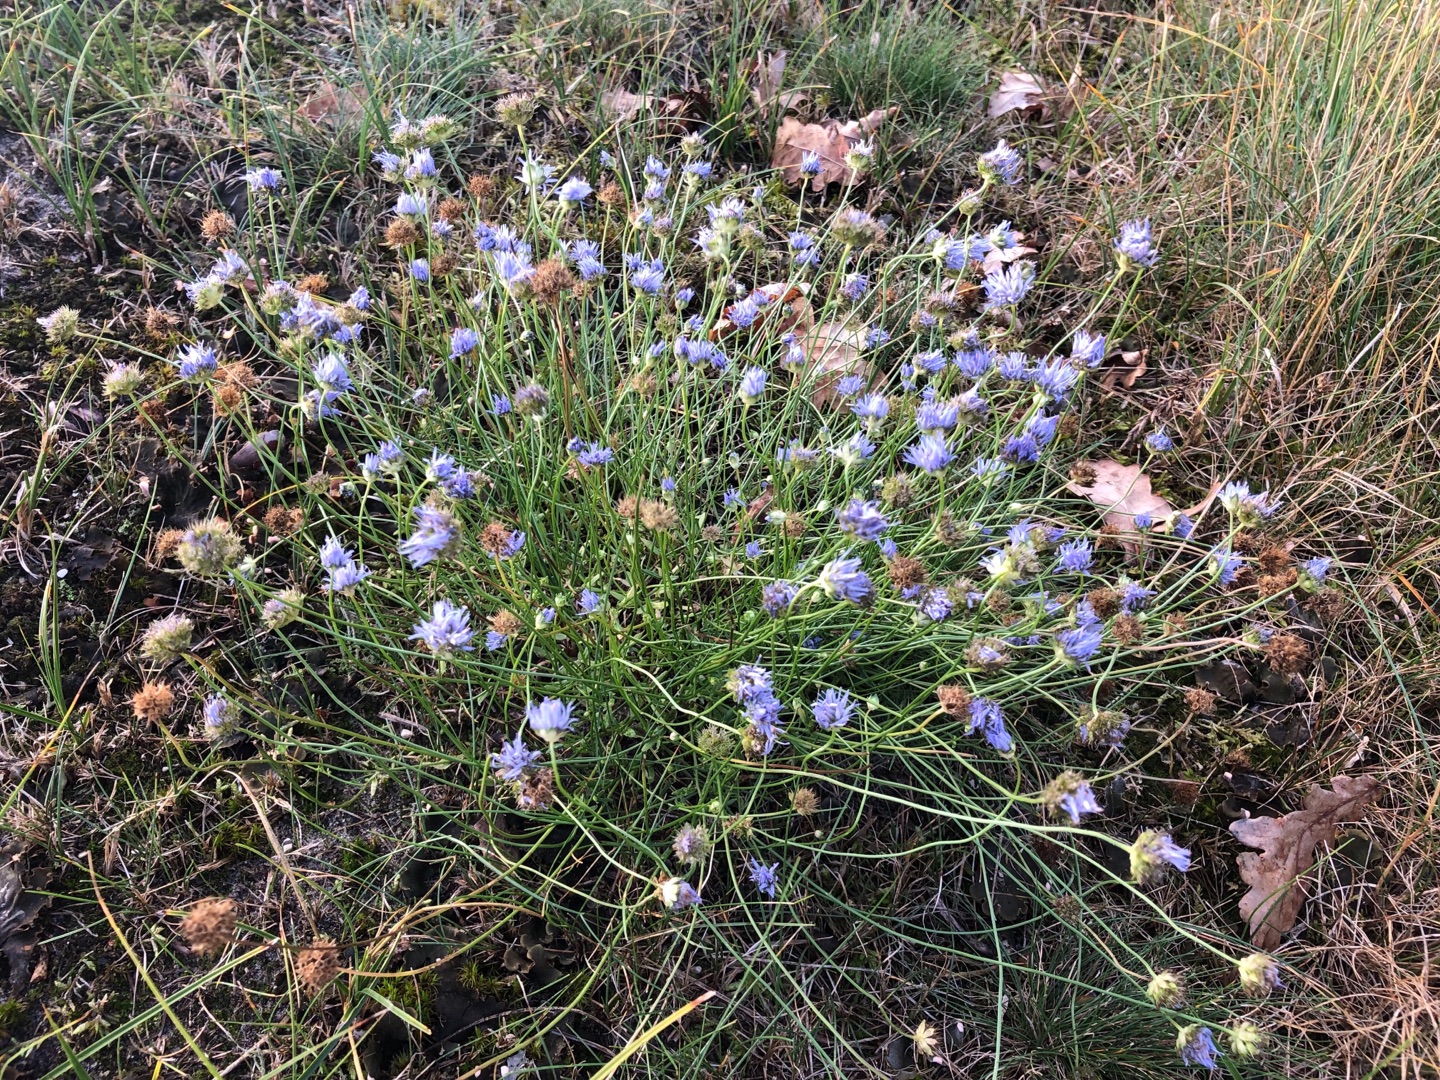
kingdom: Plantae
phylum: Tracheophyta
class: Magnoliopsida
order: Asterales
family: Campanulaceae
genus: Jasione
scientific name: Jasione montana
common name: Blåmunke
